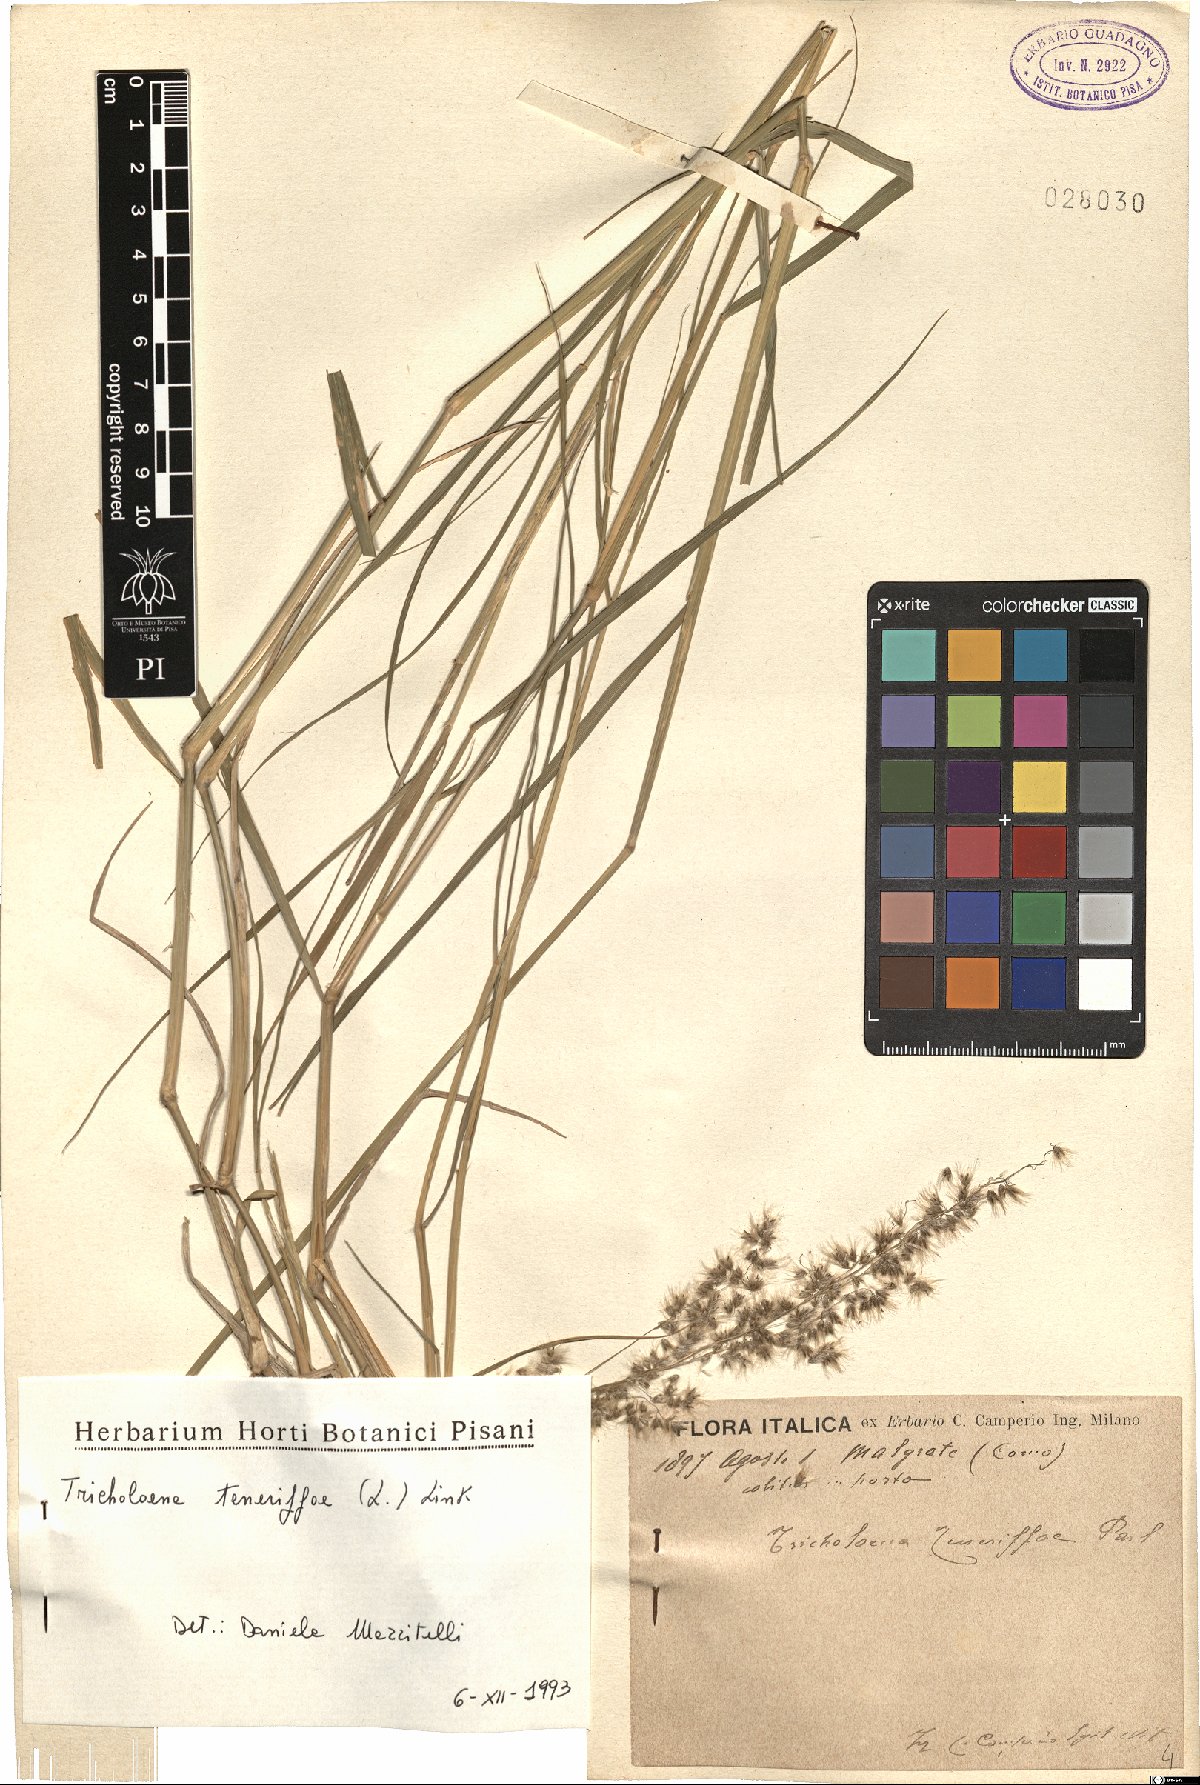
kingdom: Plantae
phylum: Tracheophyta
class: Liliopsida
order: Poales
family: Poaceae
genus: Tricholaena
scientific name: Tricholaena teneriffae
